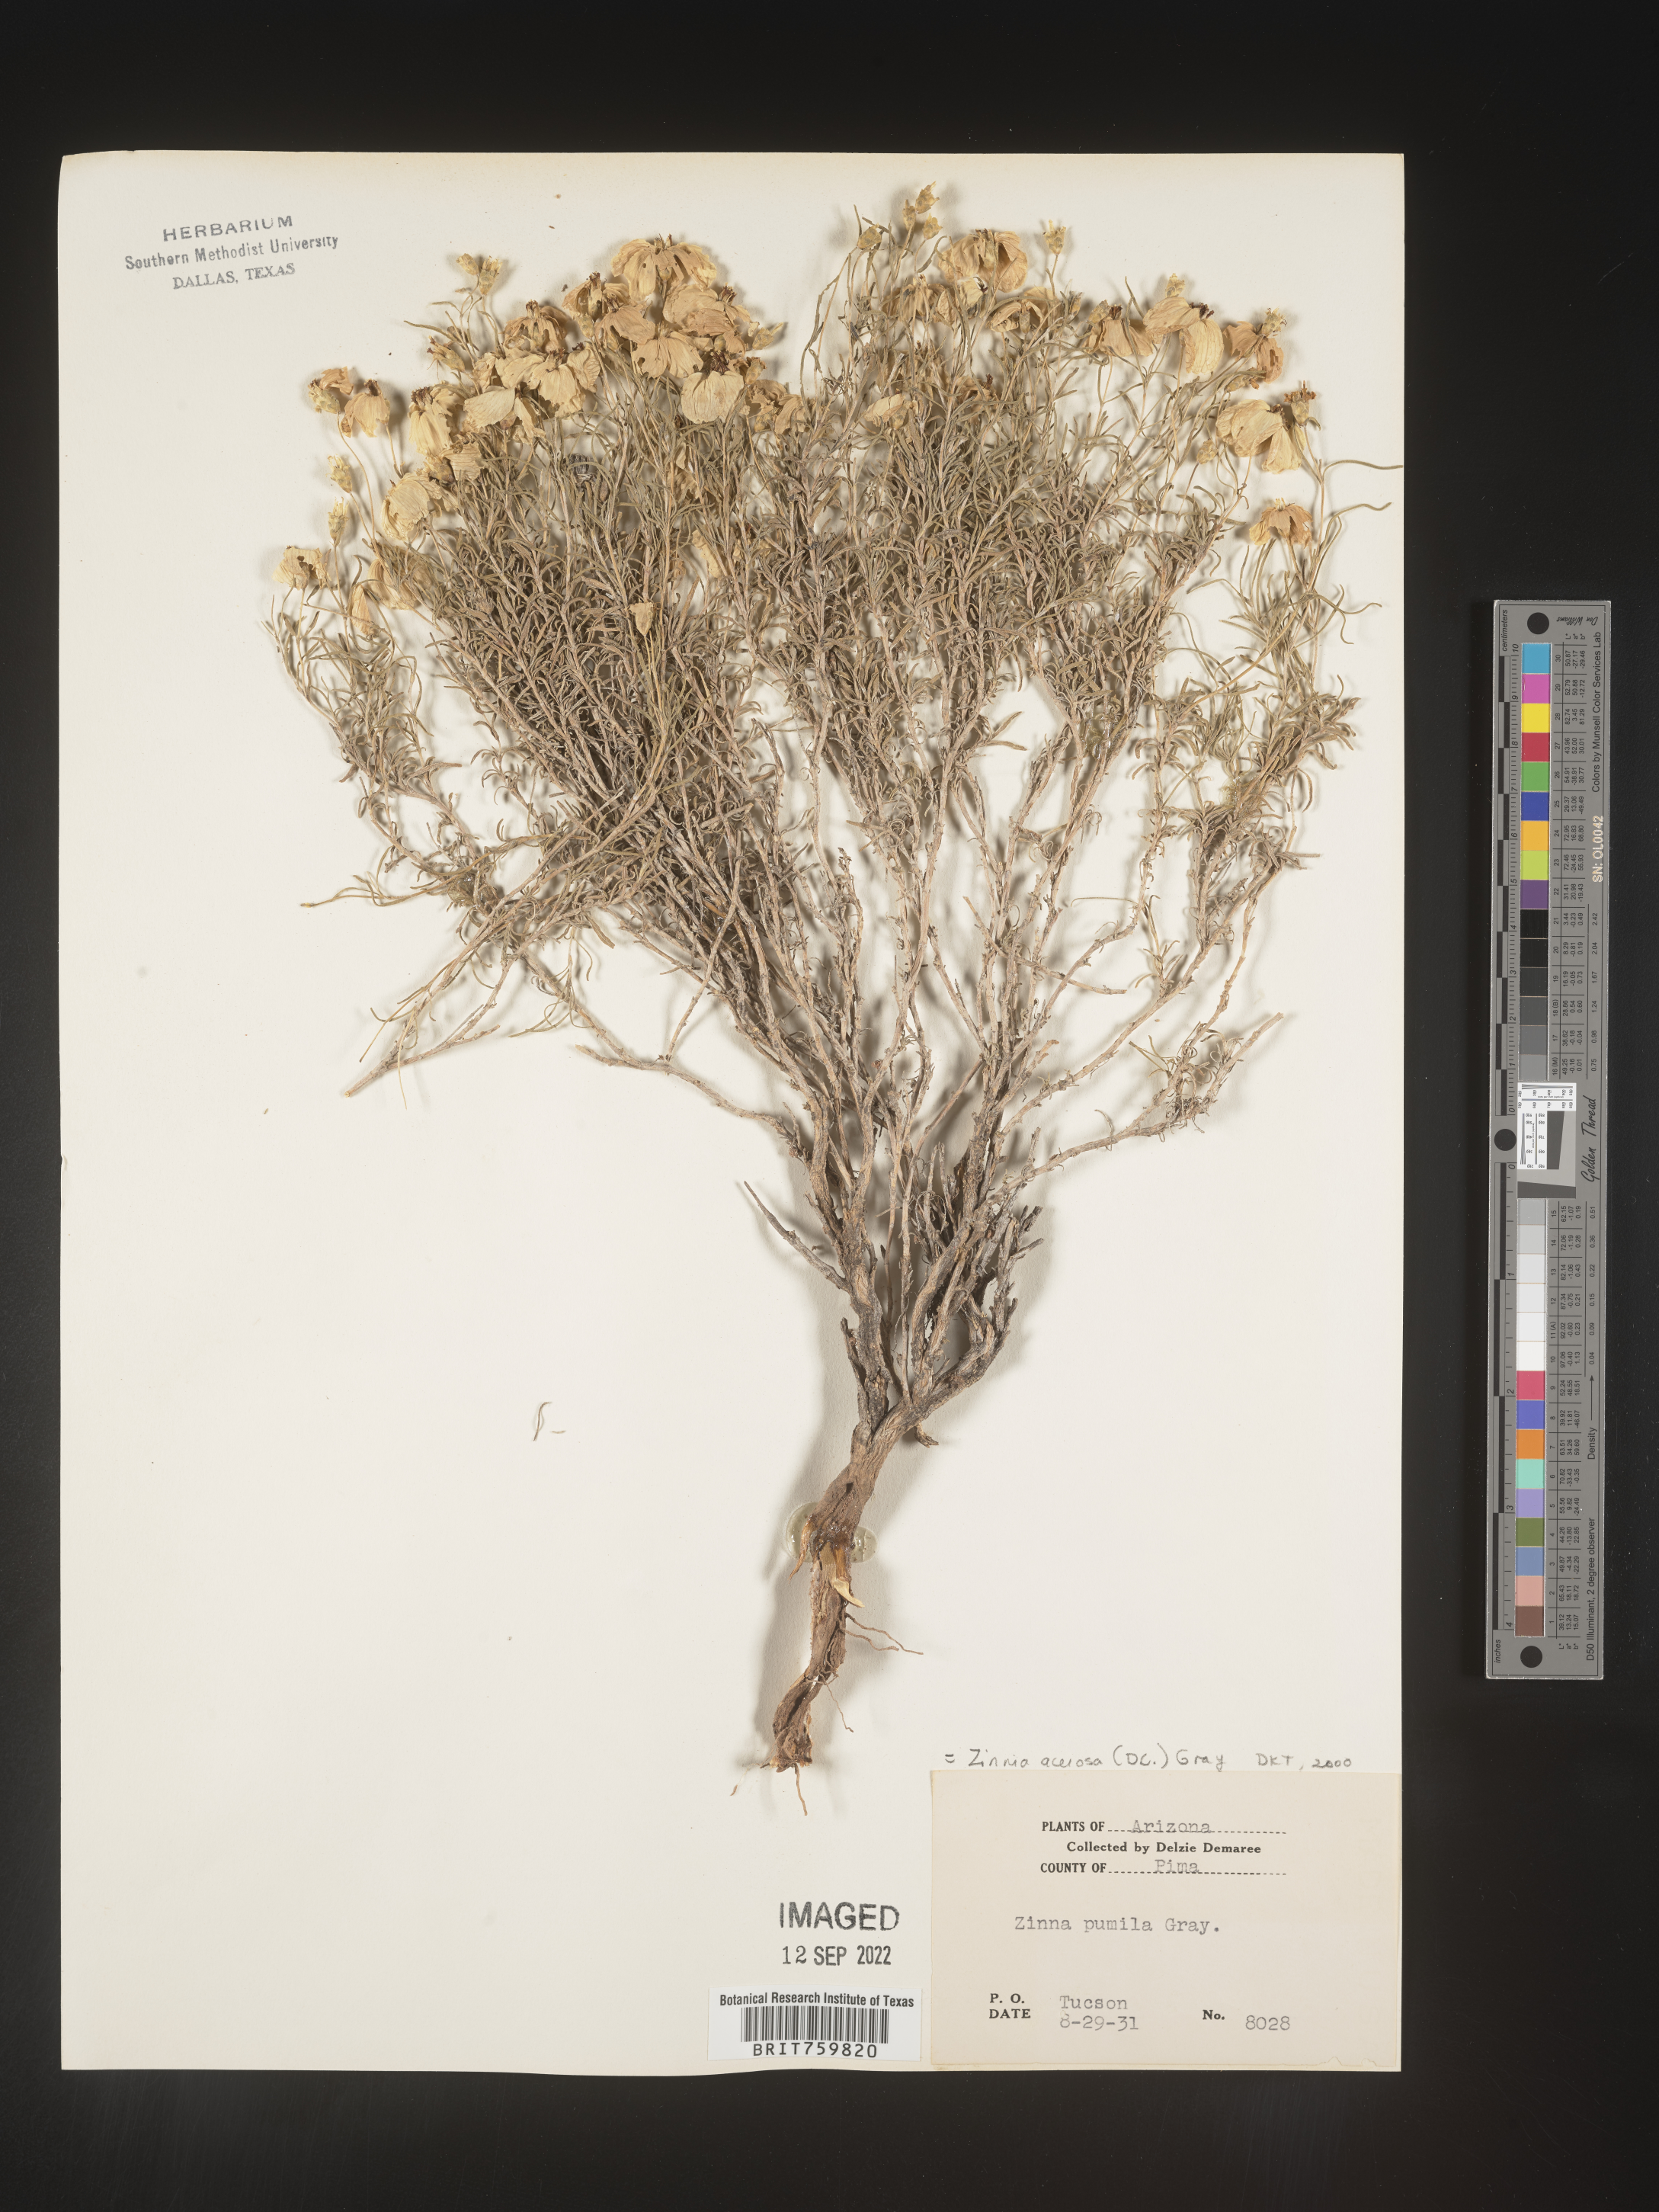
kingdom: Plantae
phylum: Tracheophyta
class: Magnoliopsida
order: Asterales
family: Asteraceae
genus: Zinnia
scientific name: Zinnia
